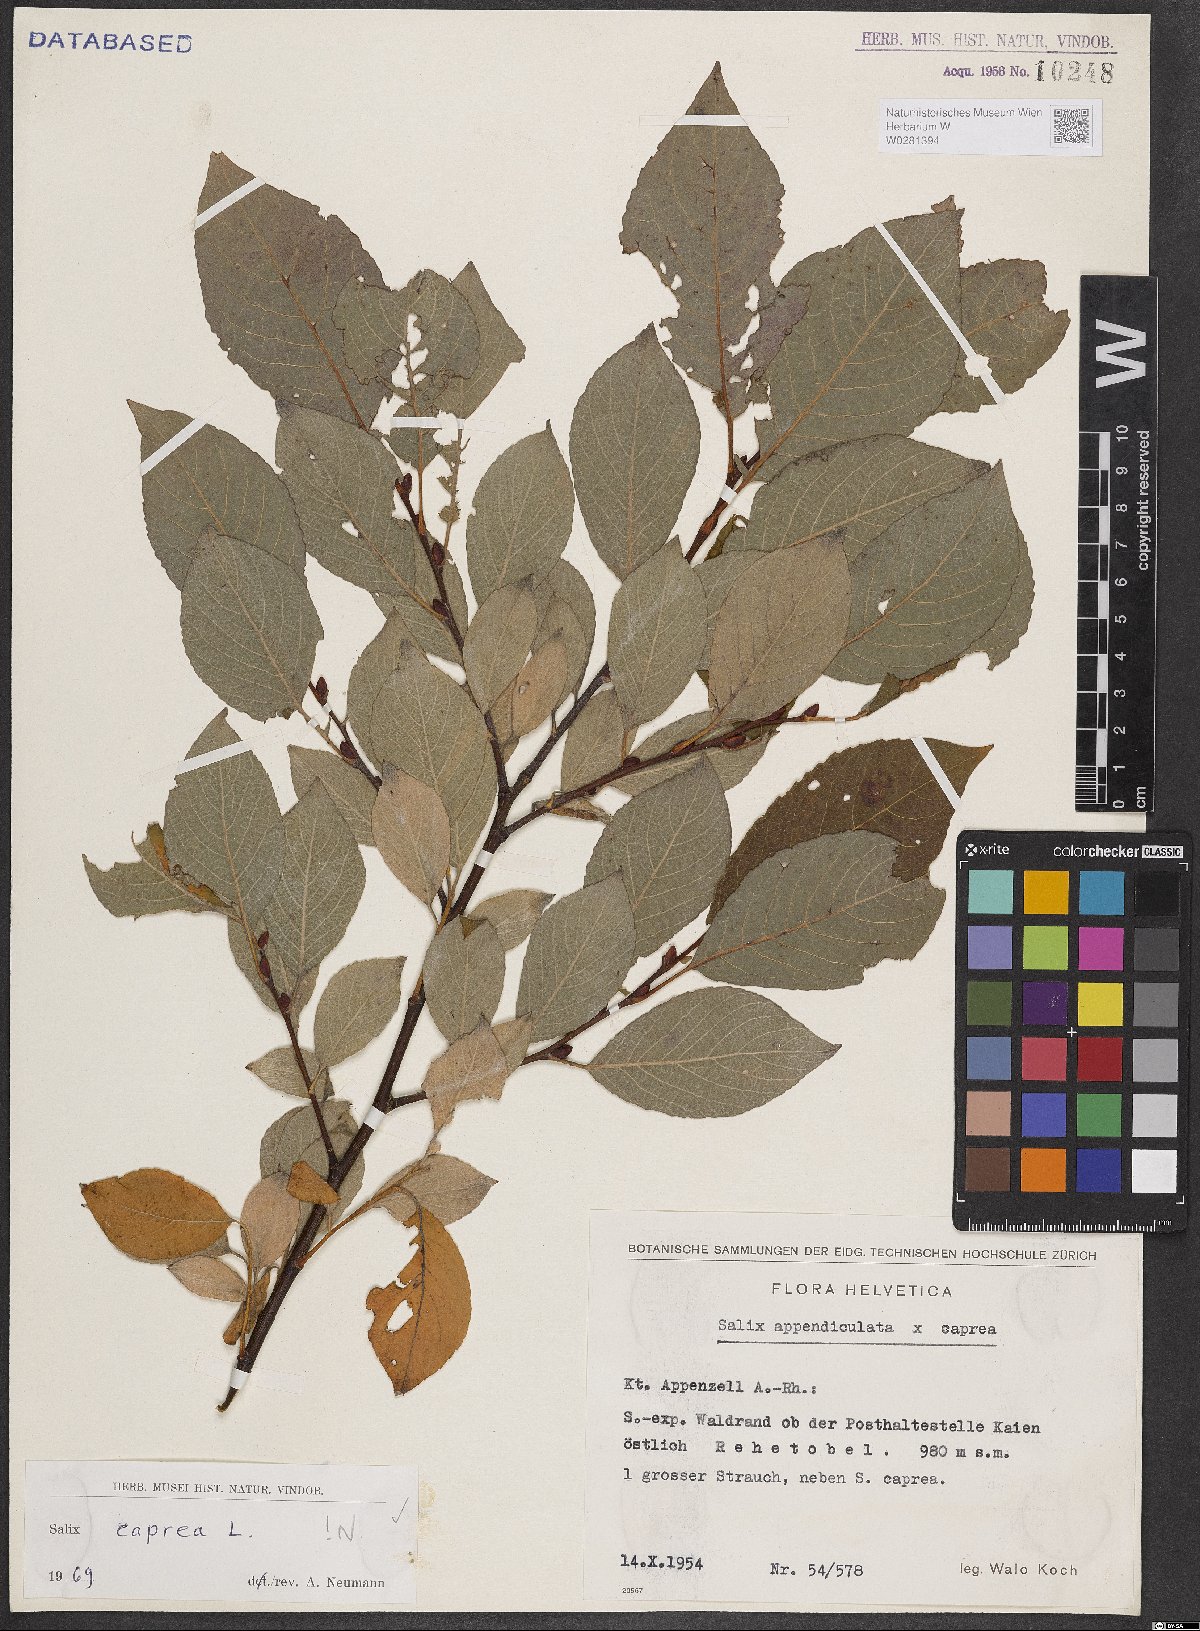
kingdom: Plantae
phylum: Tracheophyta
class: Magnoliopsida
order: Malpighiales
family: Salicaceae
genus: Salix
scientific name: Salix caprea
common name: Goat willow
